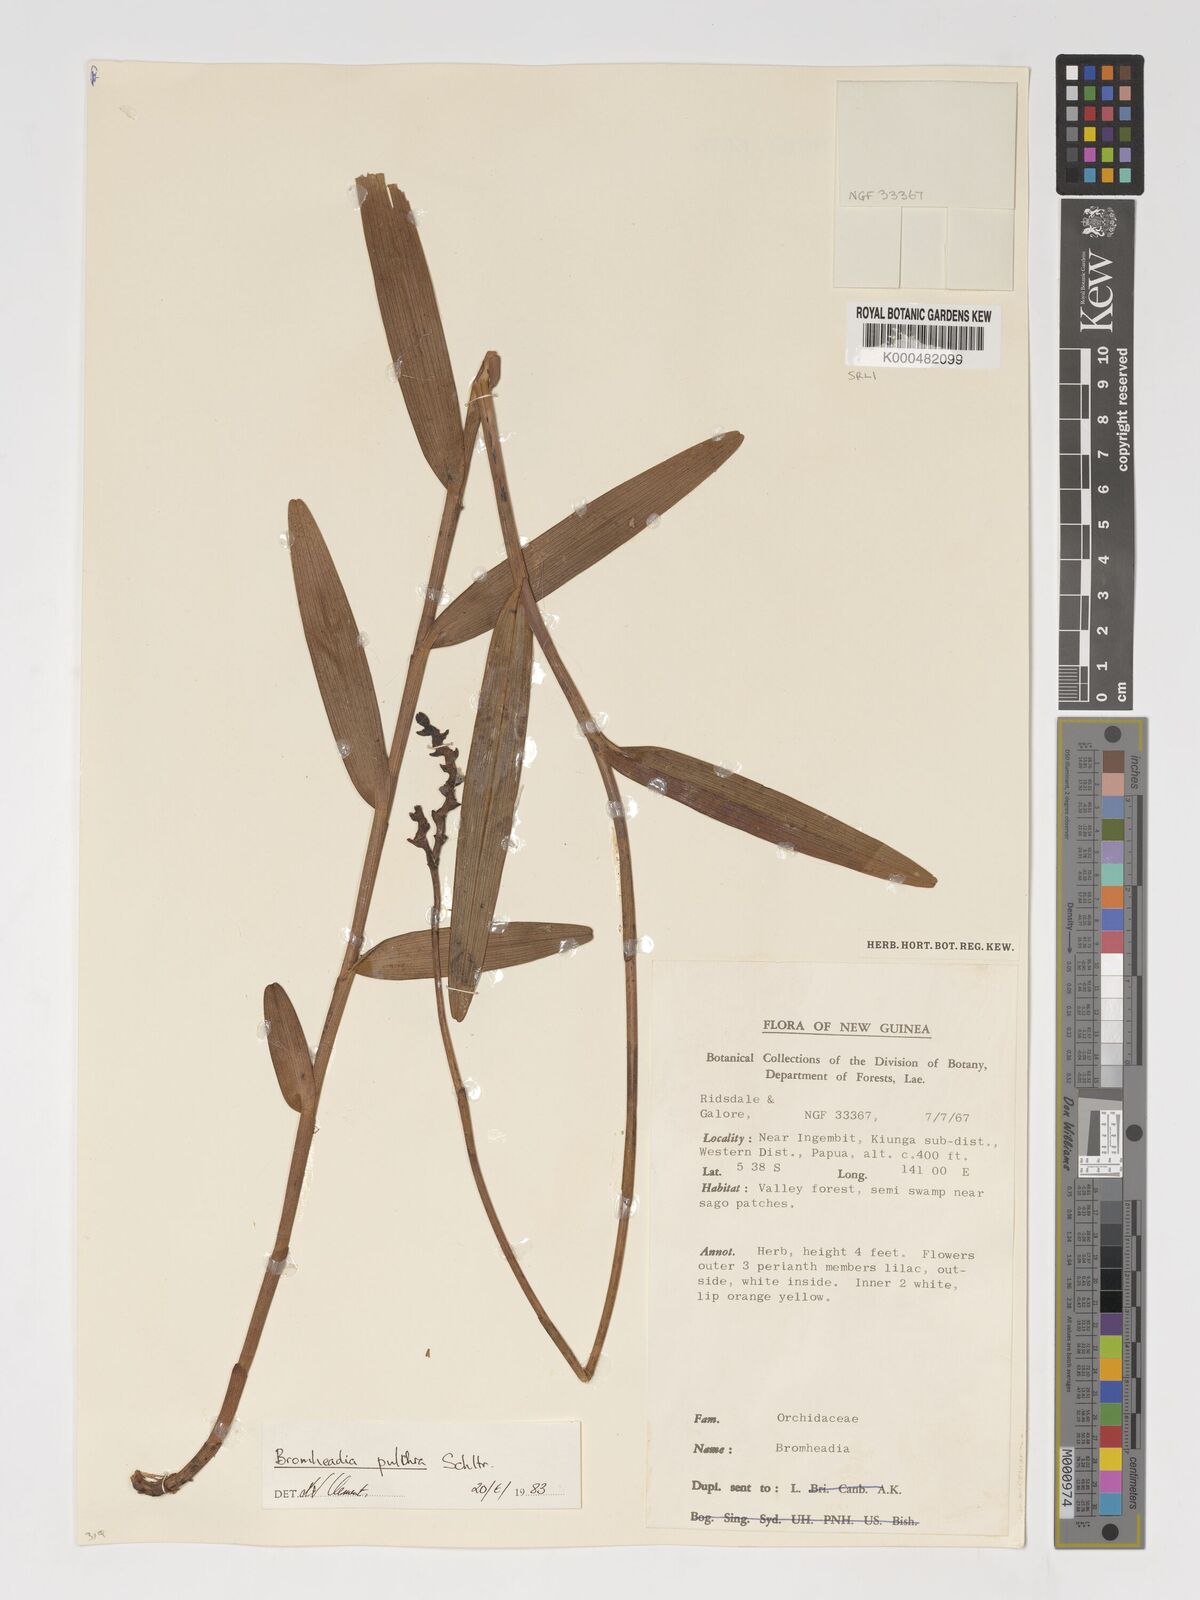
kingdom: Plantae
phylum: Tracheophyta
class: Liliopsida
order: Asparagales
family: Orchidaceae
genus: Bromheadia
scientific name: Bromheadia finlaysoniana
